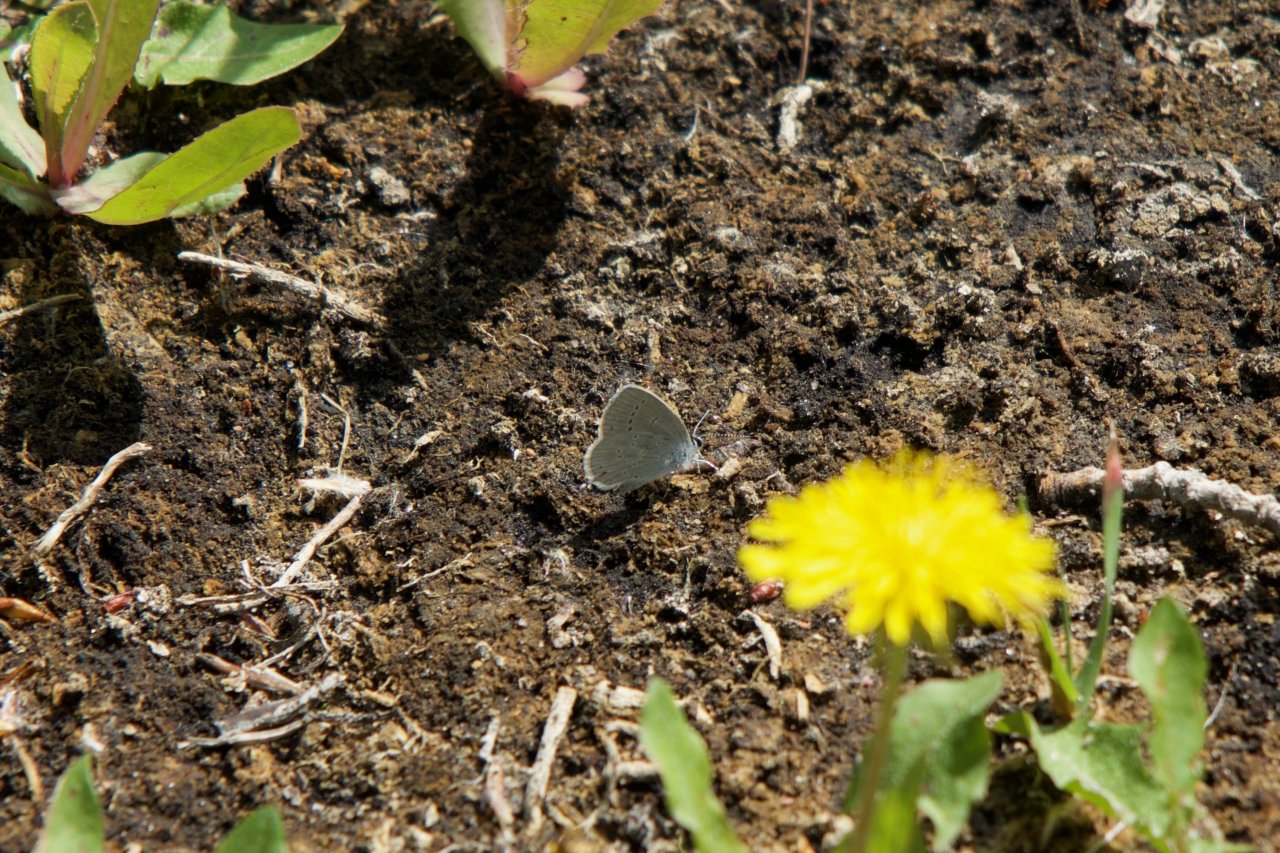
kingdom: Animalia
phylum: Arthropoda
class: Insecta
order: Lepidoptera
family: Lycaenidae
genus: Elkalyce
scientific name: Elkalyce amyntula
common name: Western Tailed-Blue
